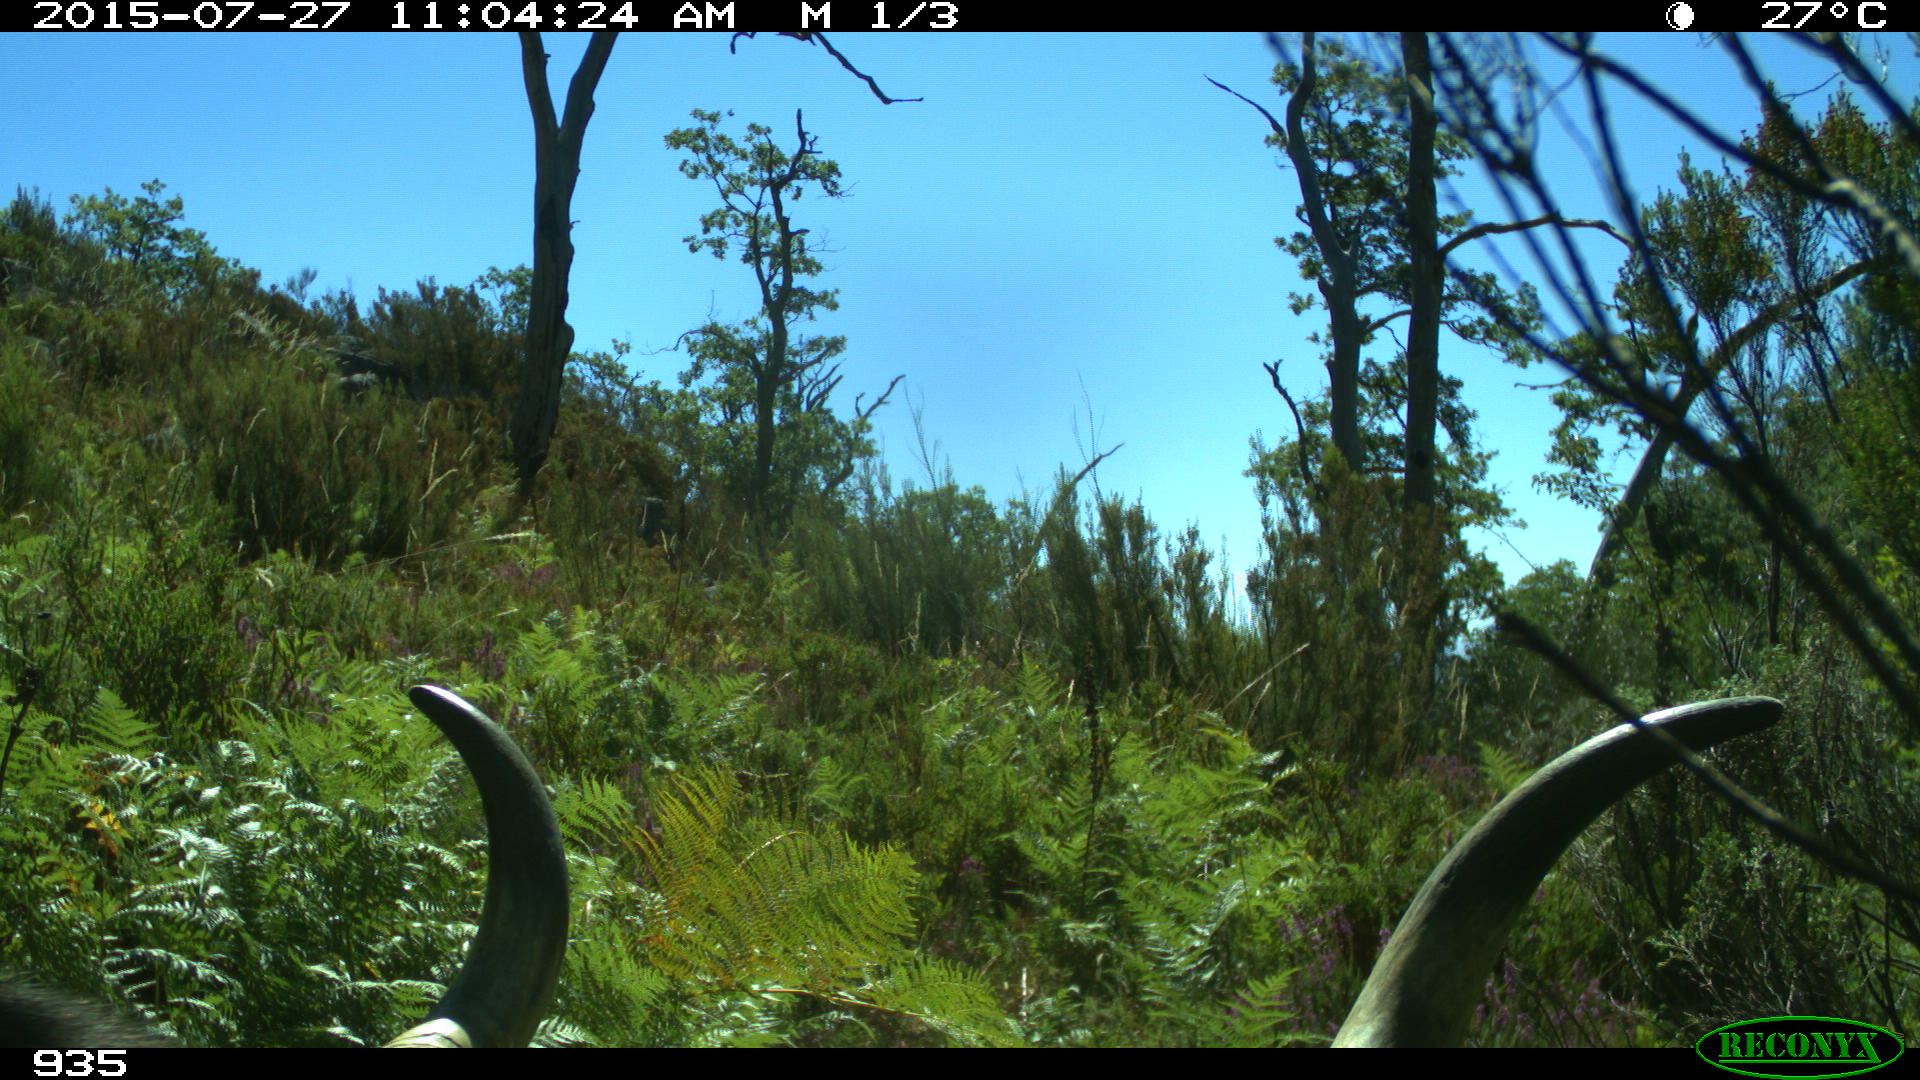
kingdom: Animalia
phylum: Chordata
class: Mammalia
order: Artiodactyla
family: Bovidae
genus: Bos
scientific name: Bos taurus
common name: Domesticated cattle
